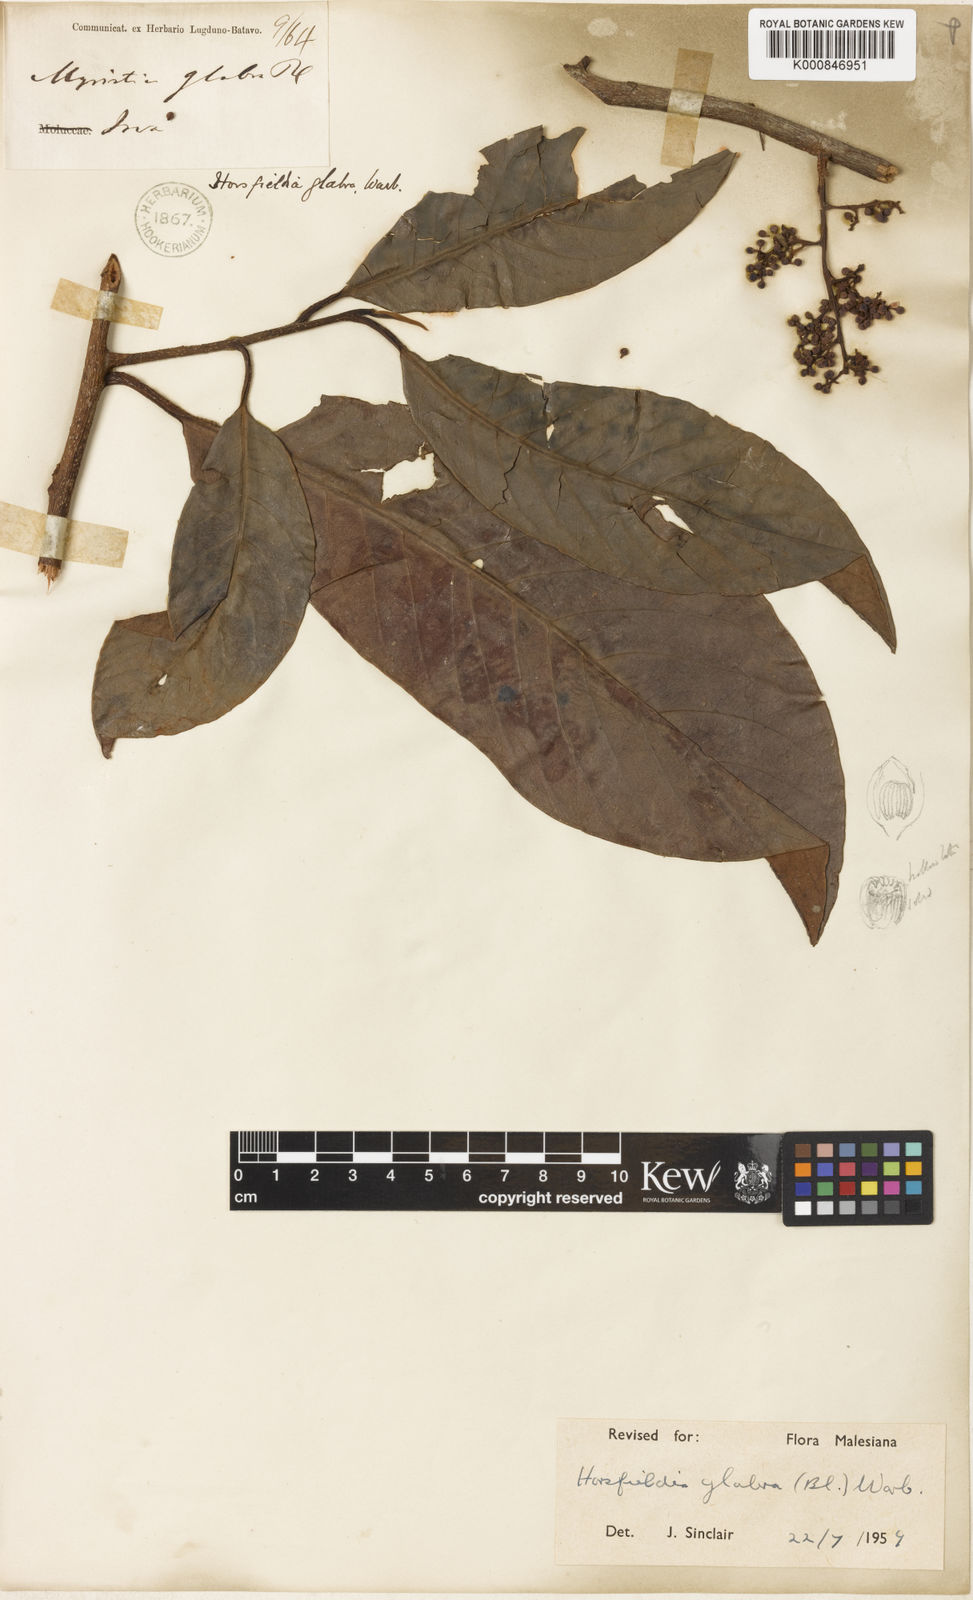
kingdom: Plantae
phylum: Tracheophyta
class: Magnoliopsida
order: Magnoliales
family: Myristicaceae
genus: Horsfieldia
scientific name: Horsfieldia glabra
